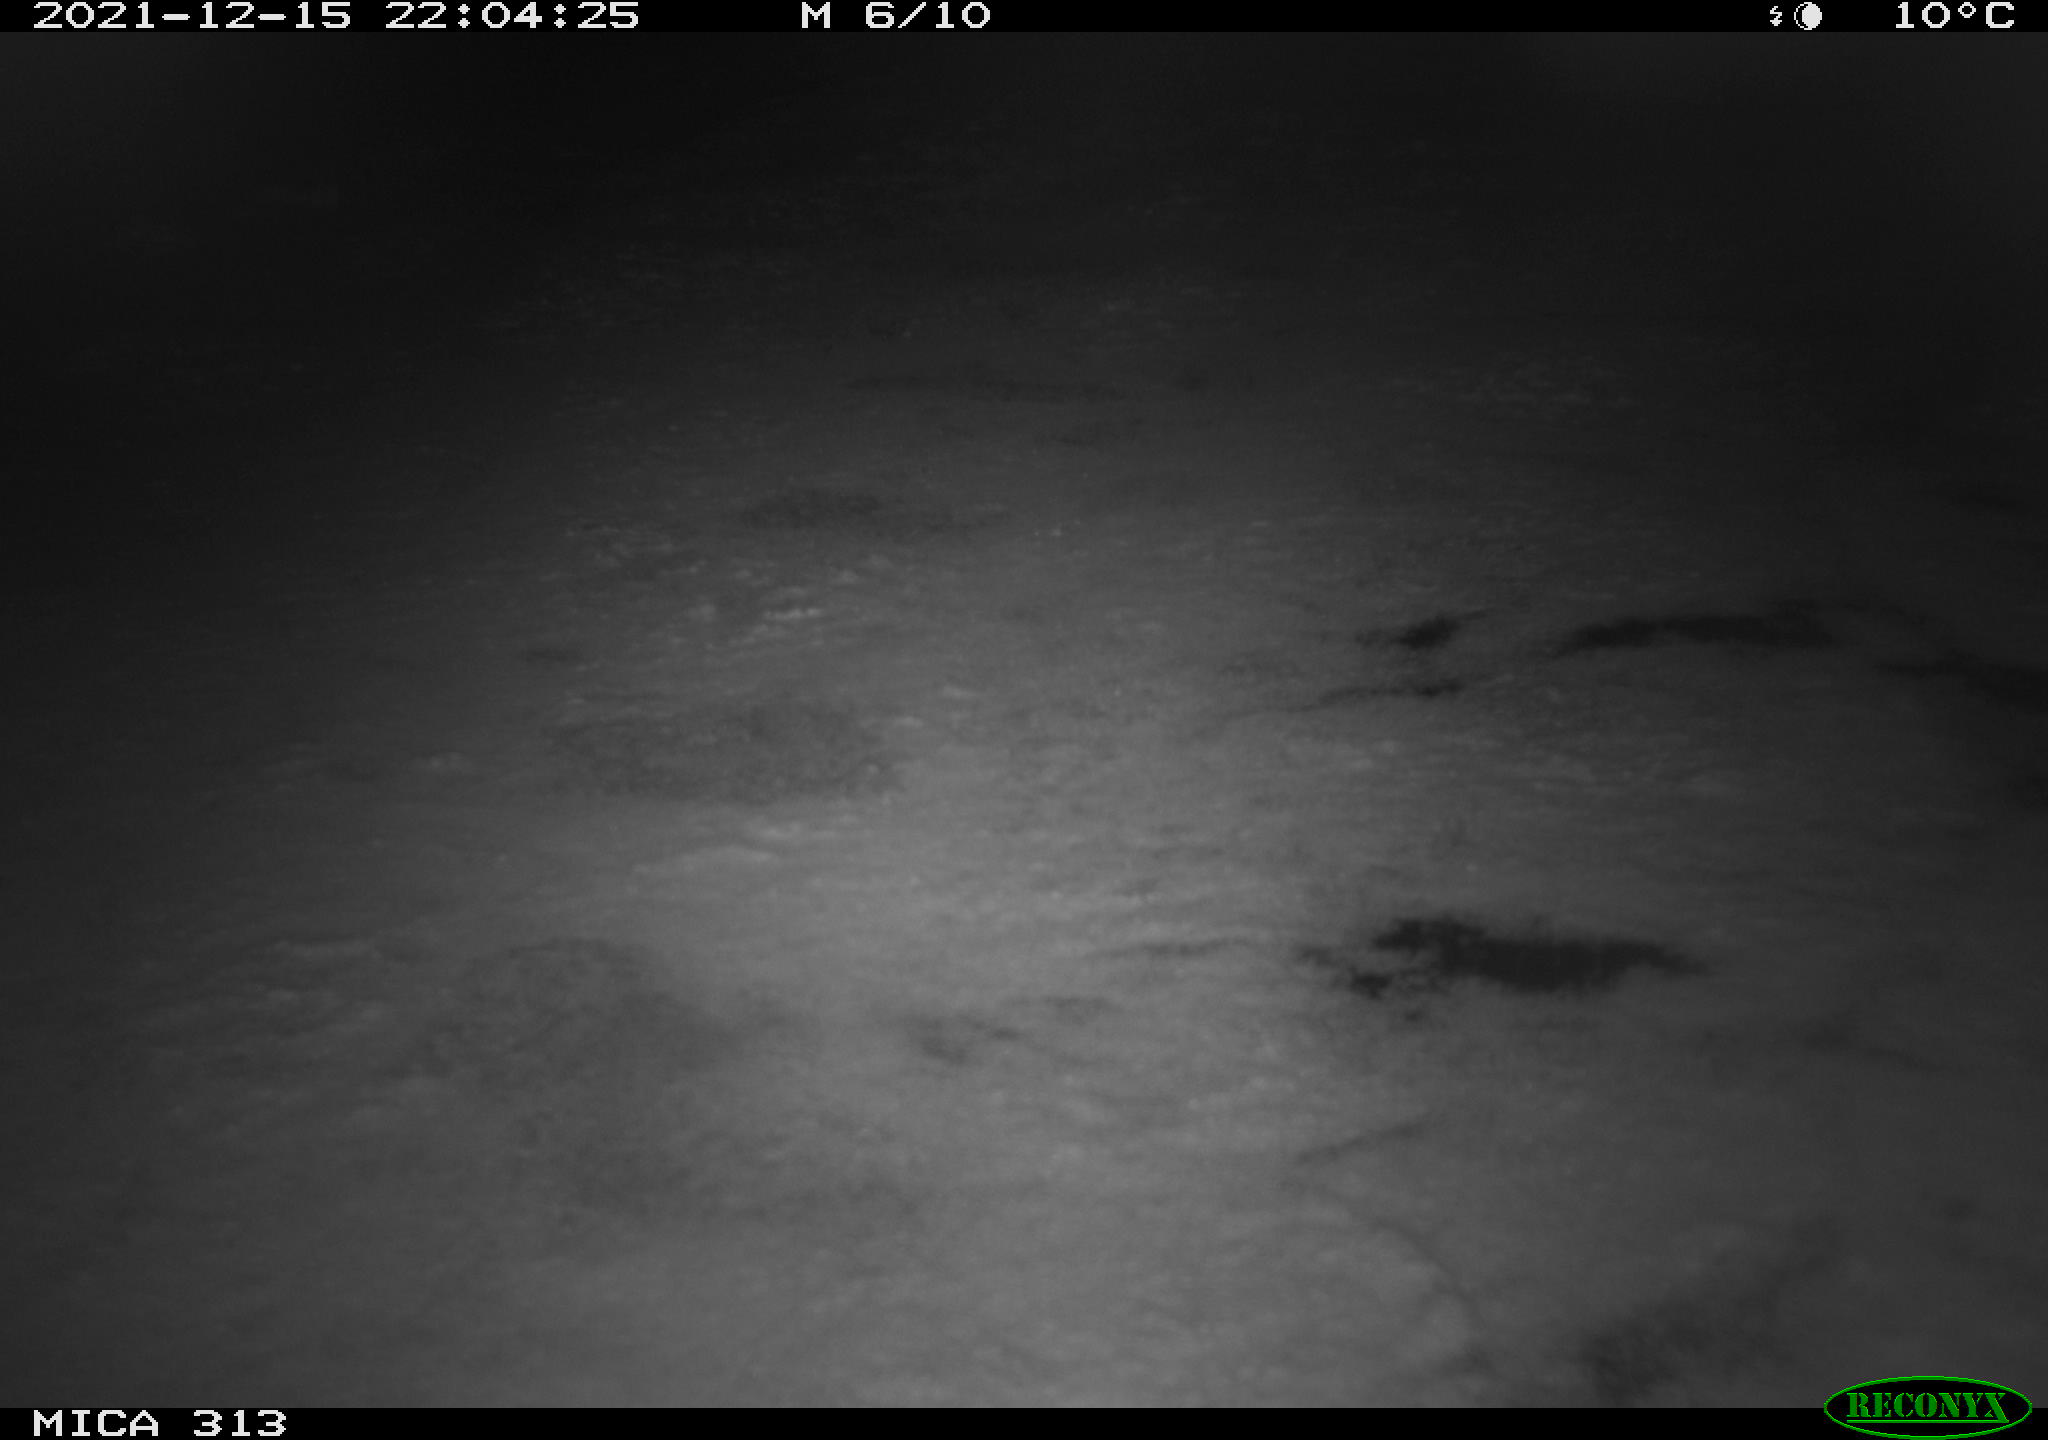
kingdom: Animalia
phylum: Chordata
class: Aves
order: Gruiformes
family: Rallidae
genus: Fulica
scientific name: Fulica atra
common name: Eurasian coot
